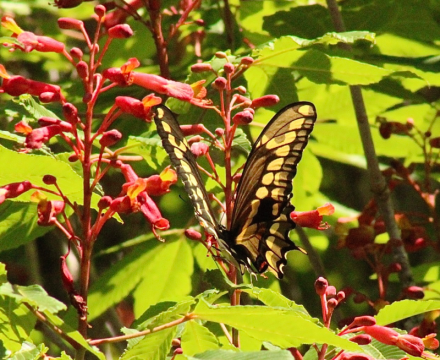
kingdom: Animalia
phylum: Arthropoda
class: Insecta
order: Lepidoptera
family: Papilionidae
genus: Papilio
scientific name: Papilio cresphontes
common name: Eastern Giant Swallowtail
